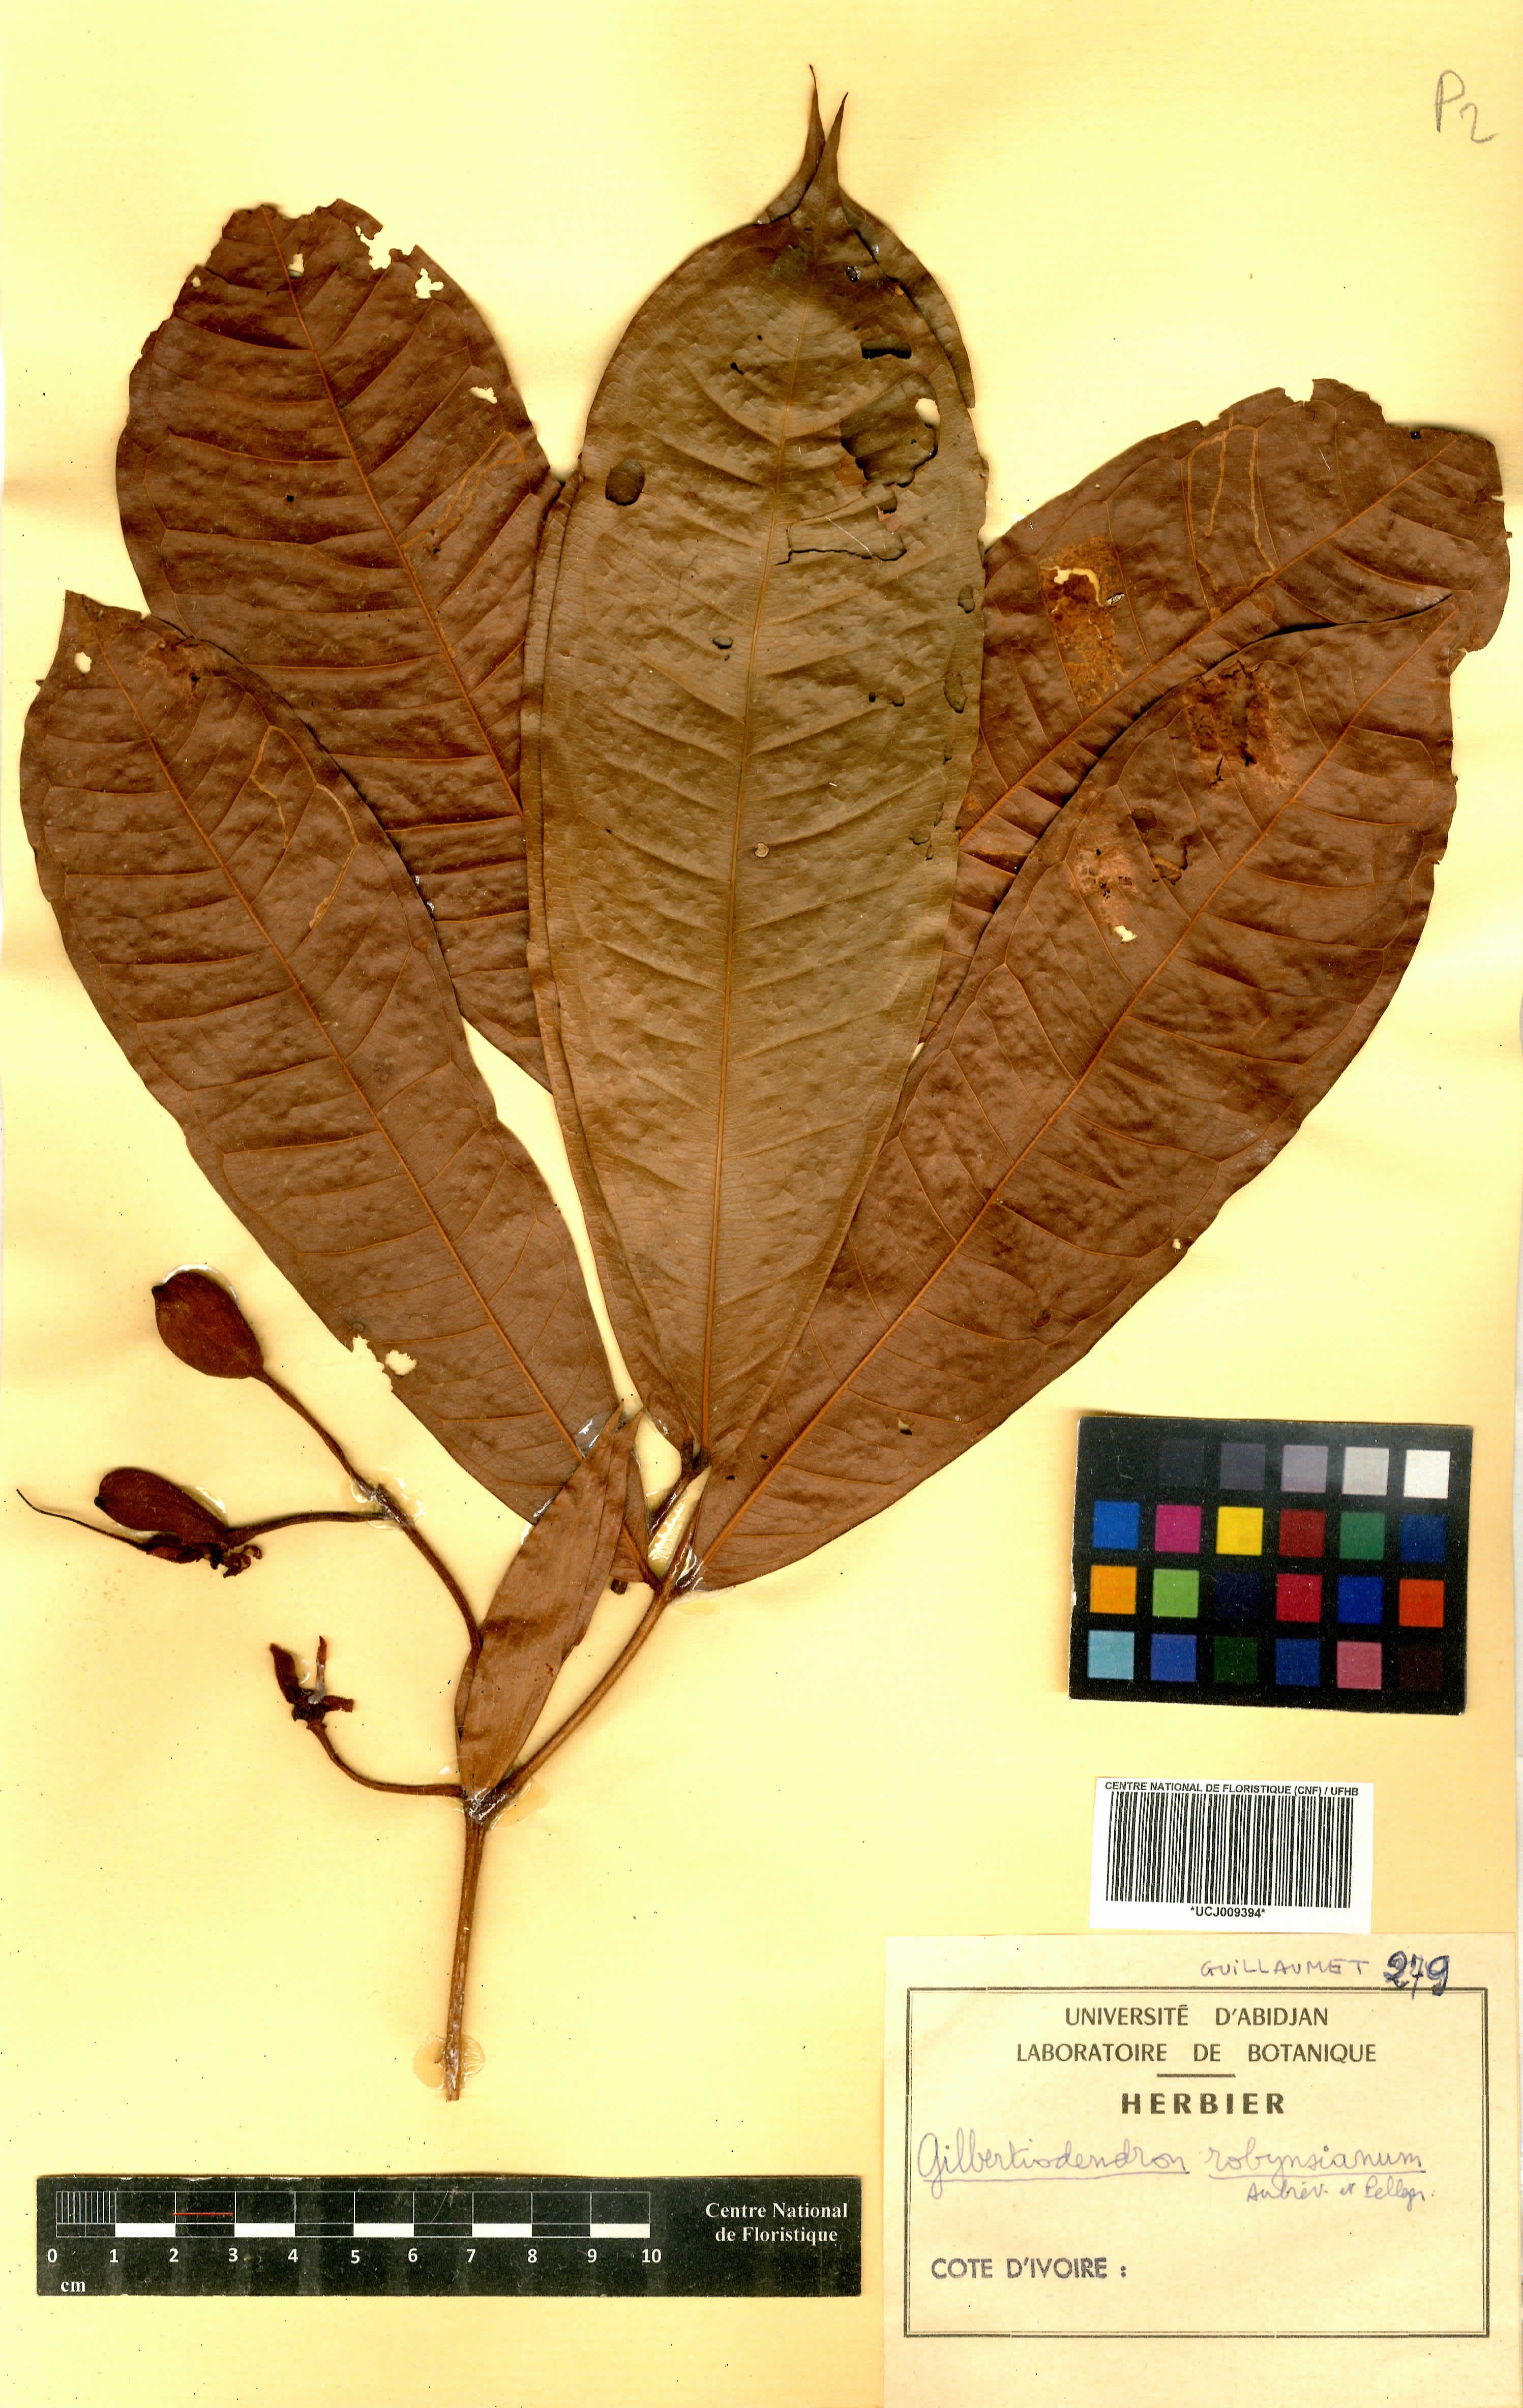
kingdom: Plantae
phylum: Tracheophyta
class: Magnoliopsida
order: Fabales
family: Fabaceae
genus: Gilbertiodendron
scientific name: Gilbertiodendron robynsianum
